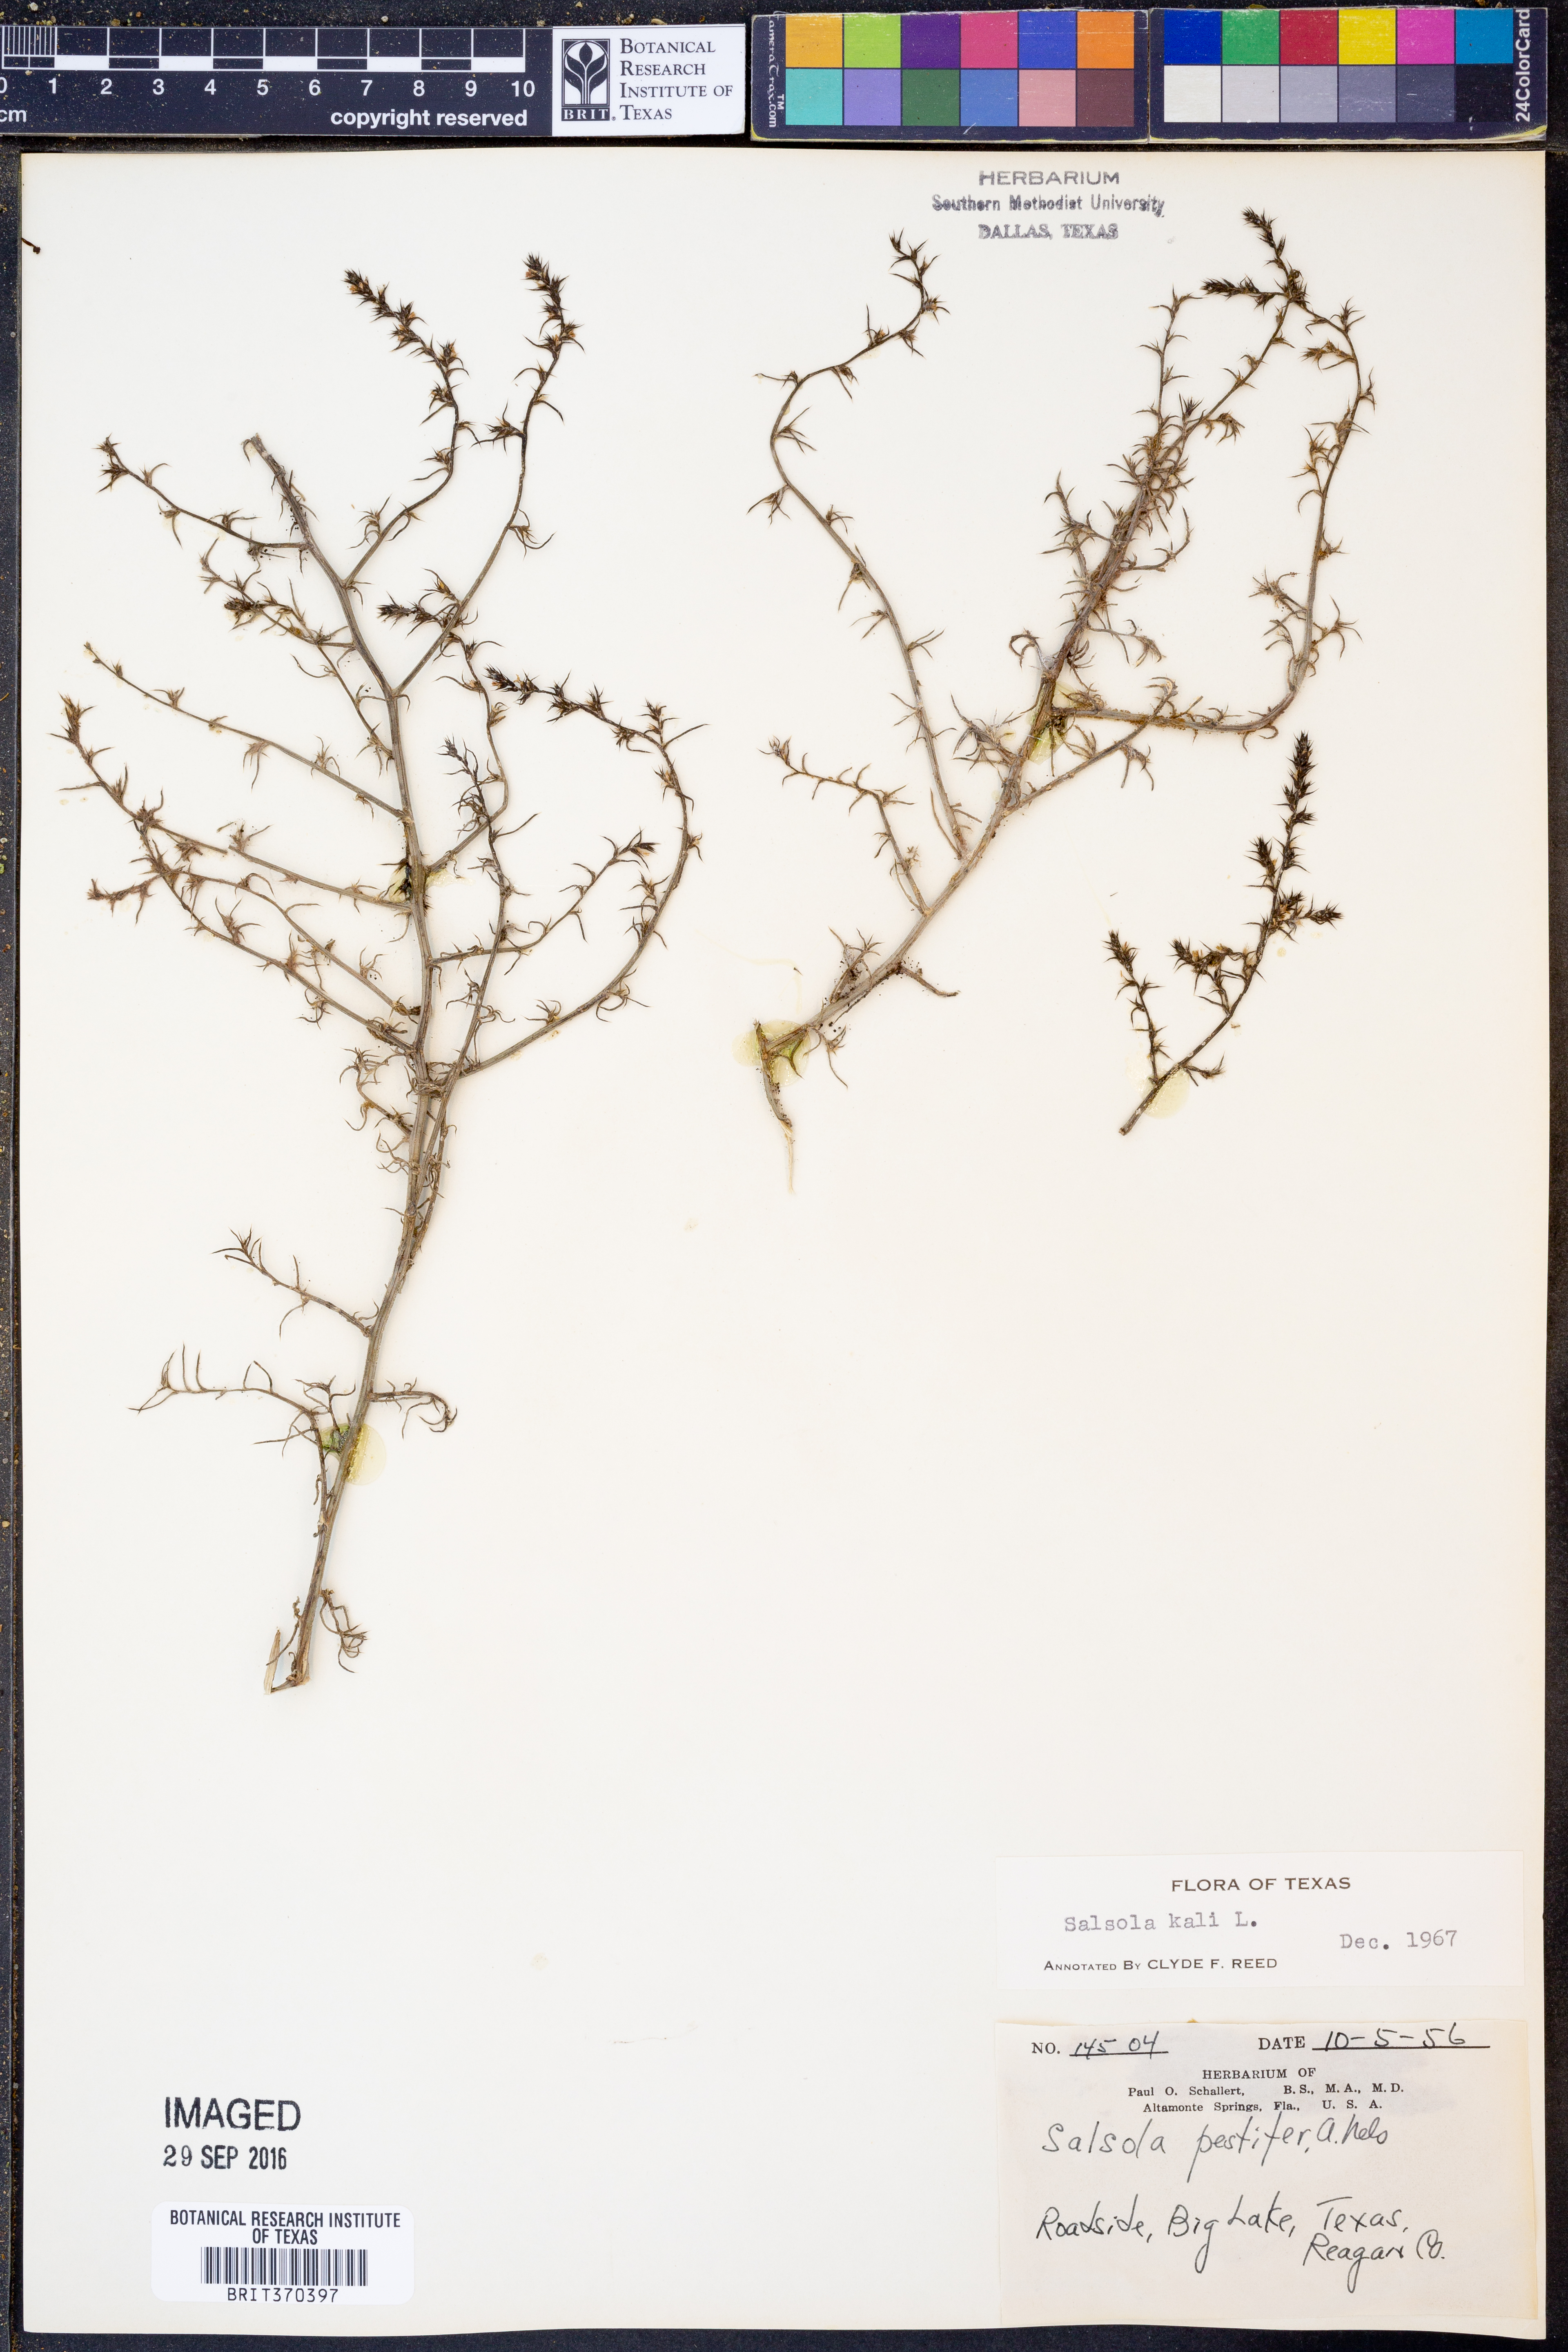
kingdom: Plantae
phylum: Tracheophyta
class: Magnoliopsida
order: Caryophyllales
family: Amaranthaceae
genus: Salsola
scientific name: Salsola kali
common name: Saltwort
